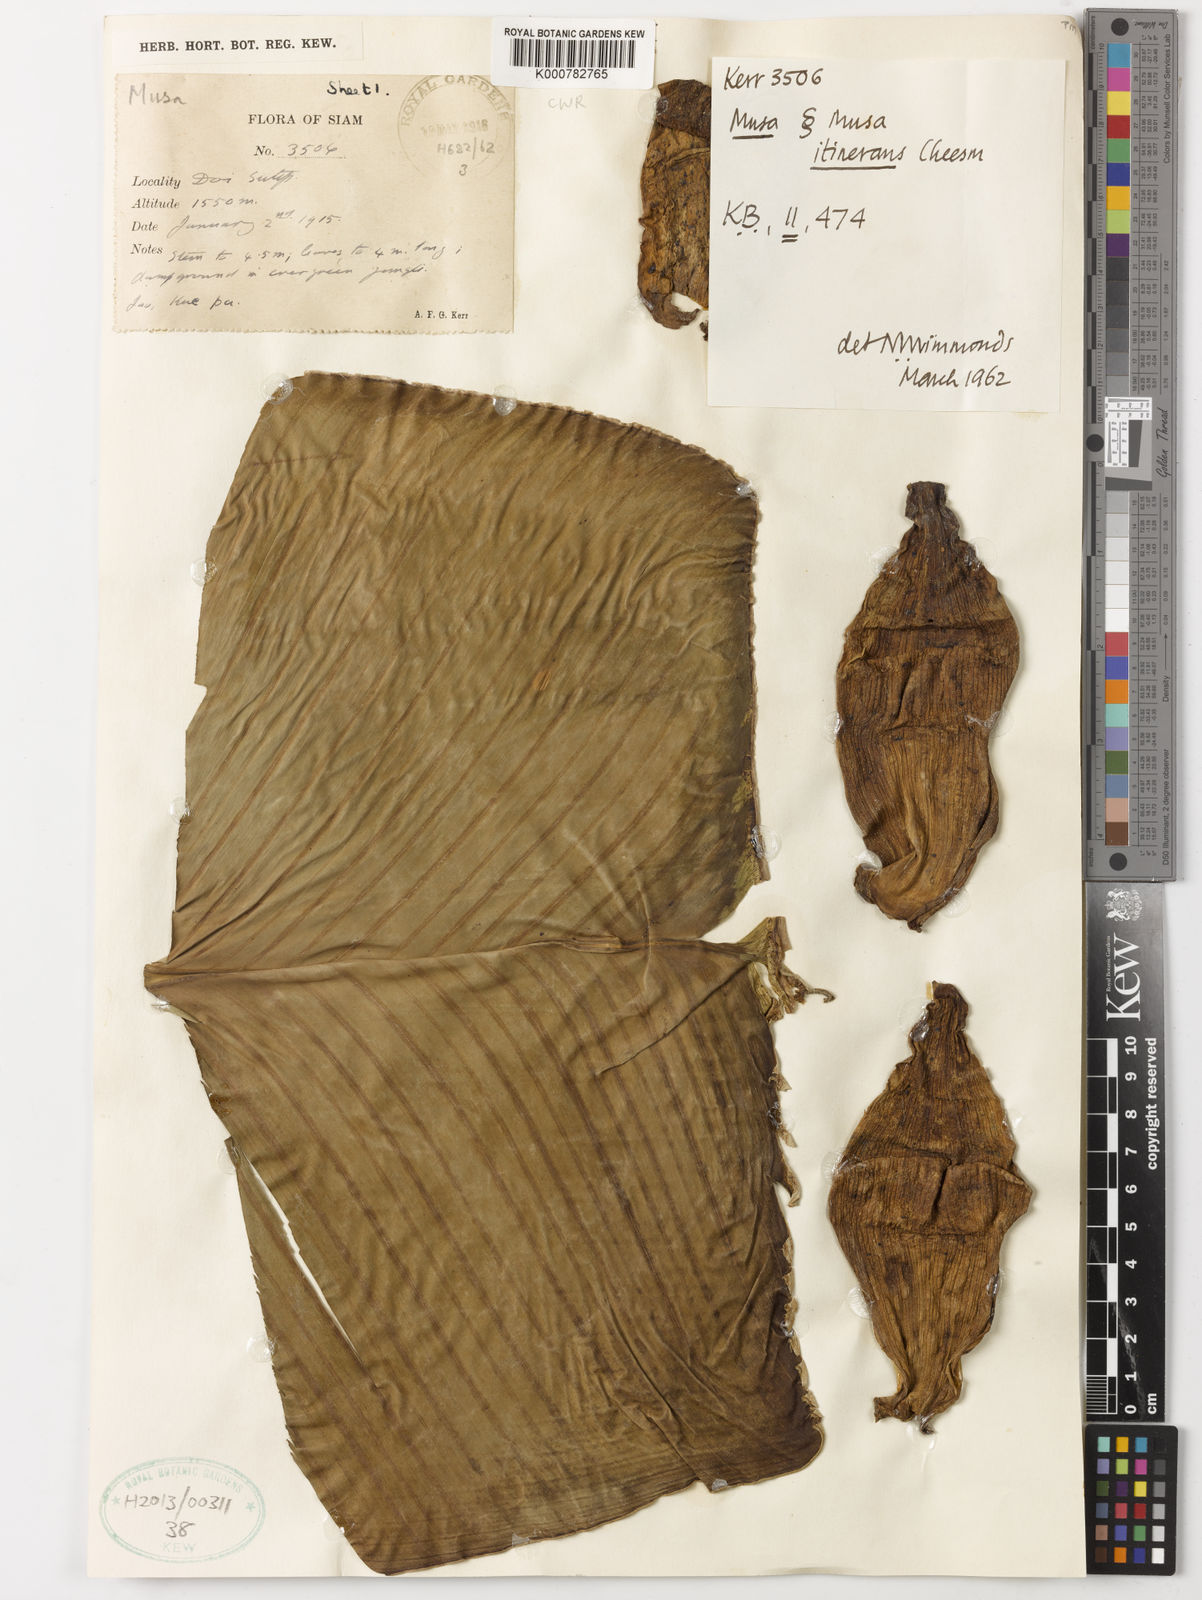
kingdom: Plantae
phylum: Tracheophyta
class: Liliopsida
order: Zingiberales
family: Musaceae
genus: Musa
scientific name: Musa itinerans
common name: Yunnan banana
